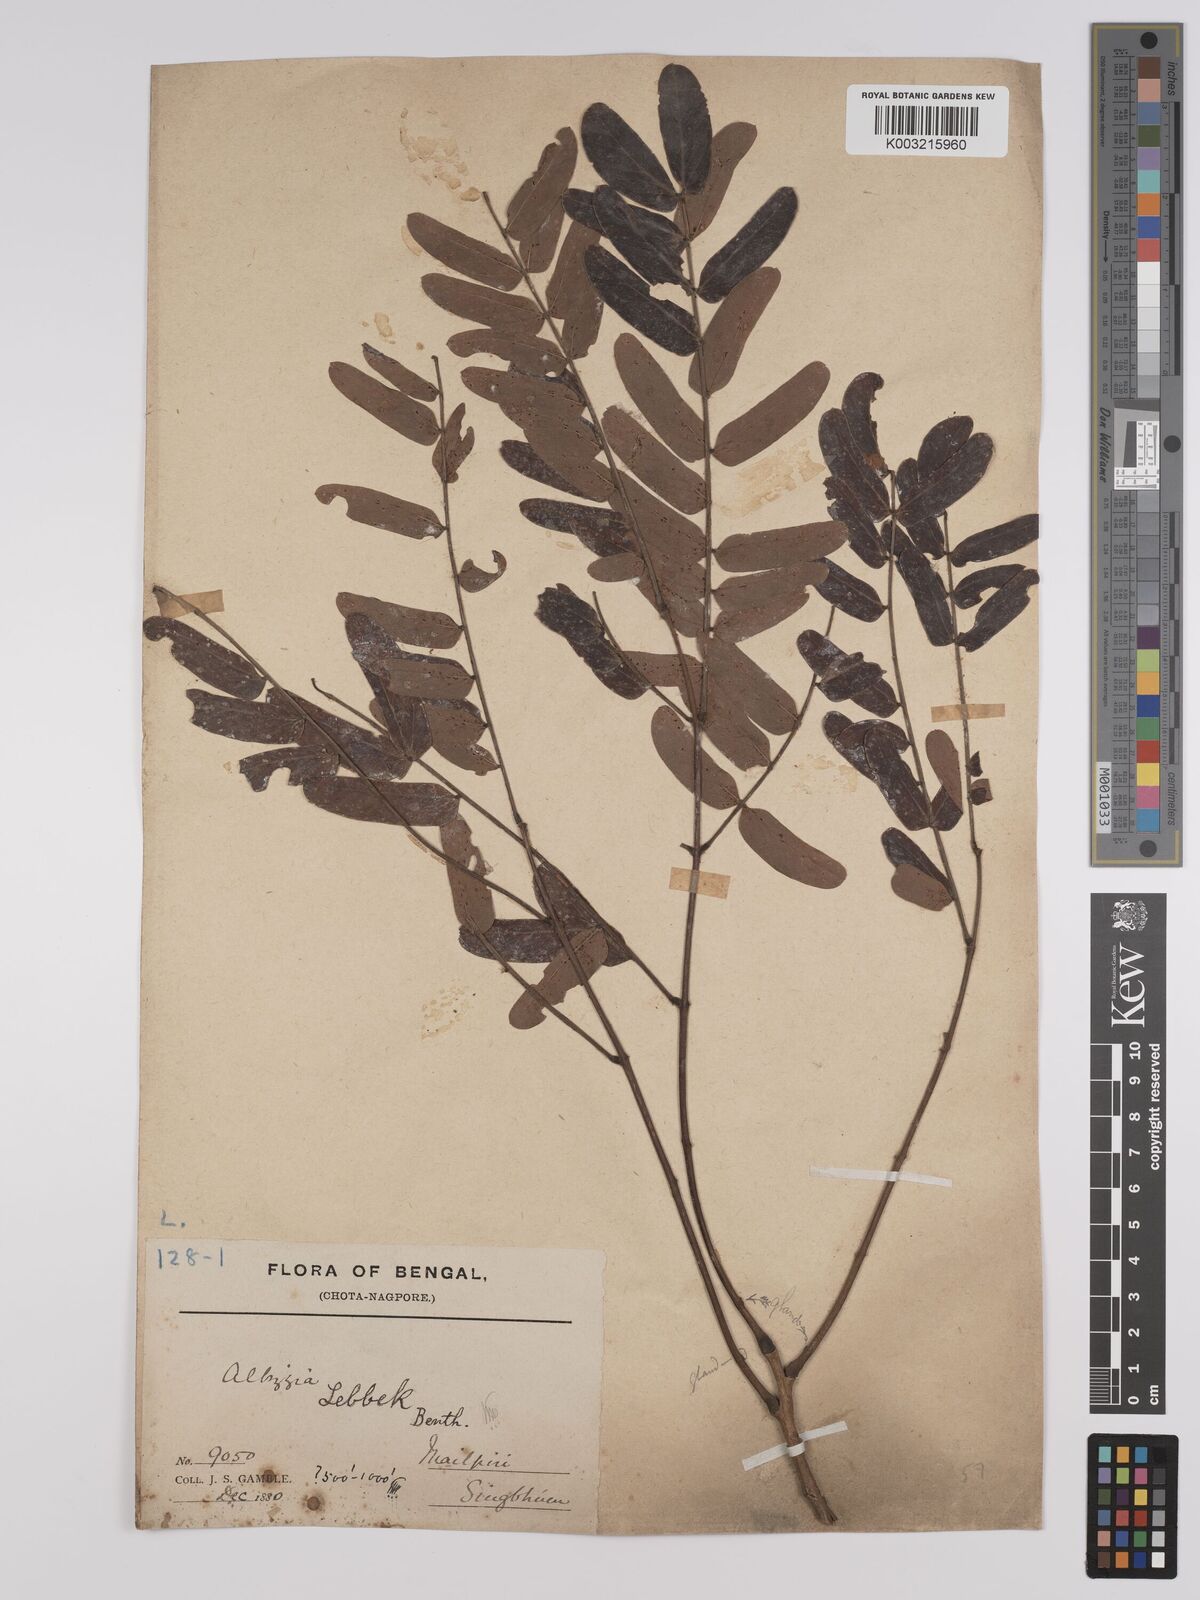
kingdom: Plantae
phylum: Tracheophyta
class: Magnoliopsida
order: Fabales
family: Fabaceae
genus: Albizia
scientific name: Albizia lebbeck
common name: Woman's tongue
